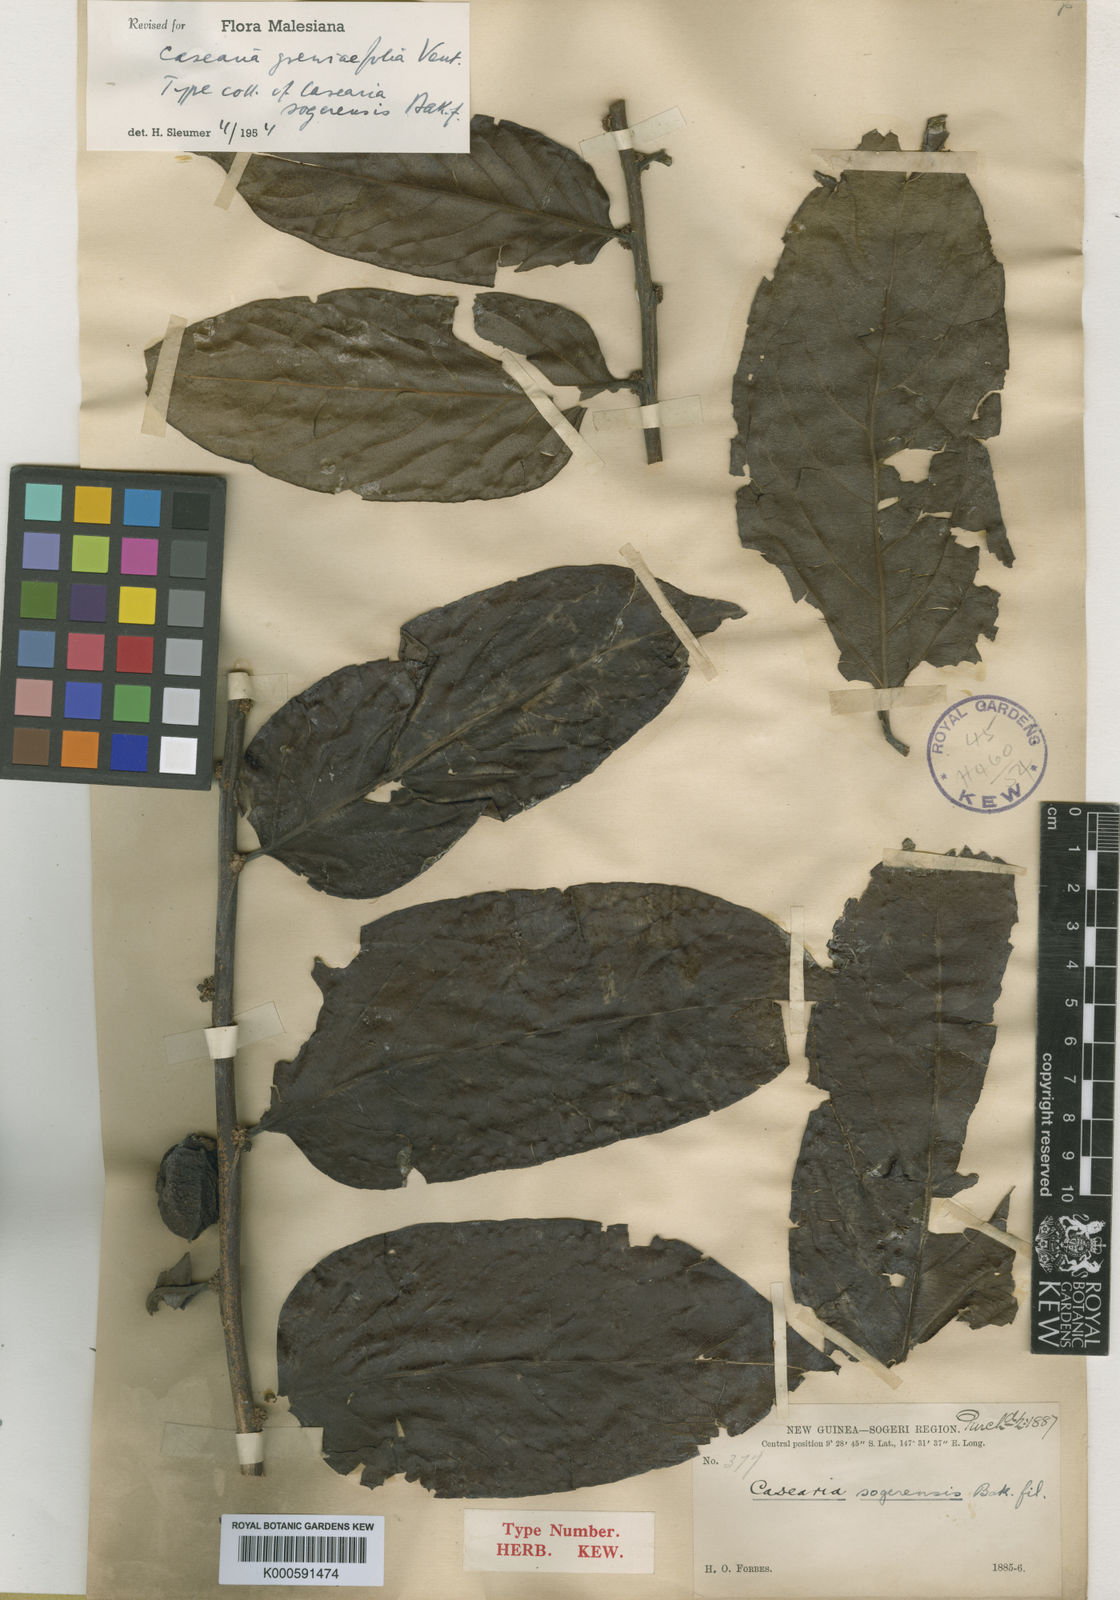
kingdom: Plantae
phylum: Tracheophyta
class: Magnoliopsida
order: Malpighiales
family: Salicaceae
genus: Casearia
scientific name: Casearia grewiifolia
